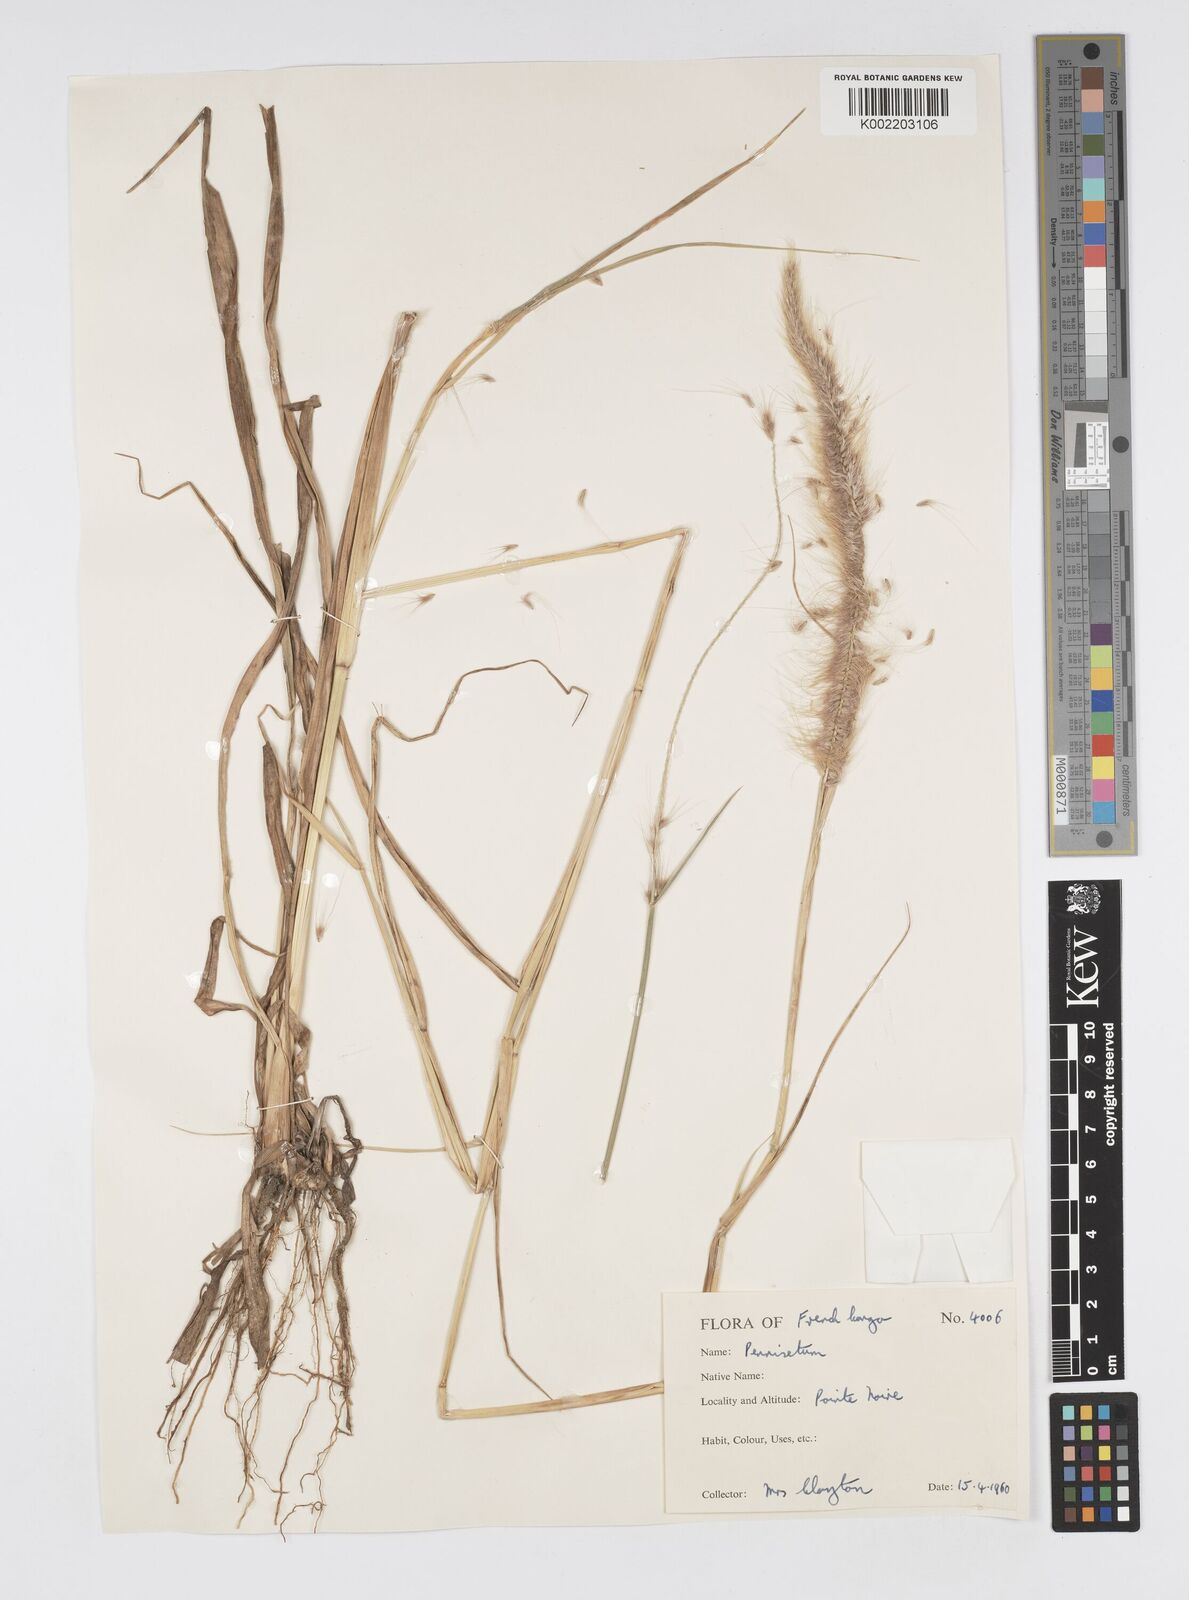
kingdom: Plantae
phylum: Tracheophyta
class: Liliopsida
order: Poales
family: Poaceae
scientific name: Poaceae
